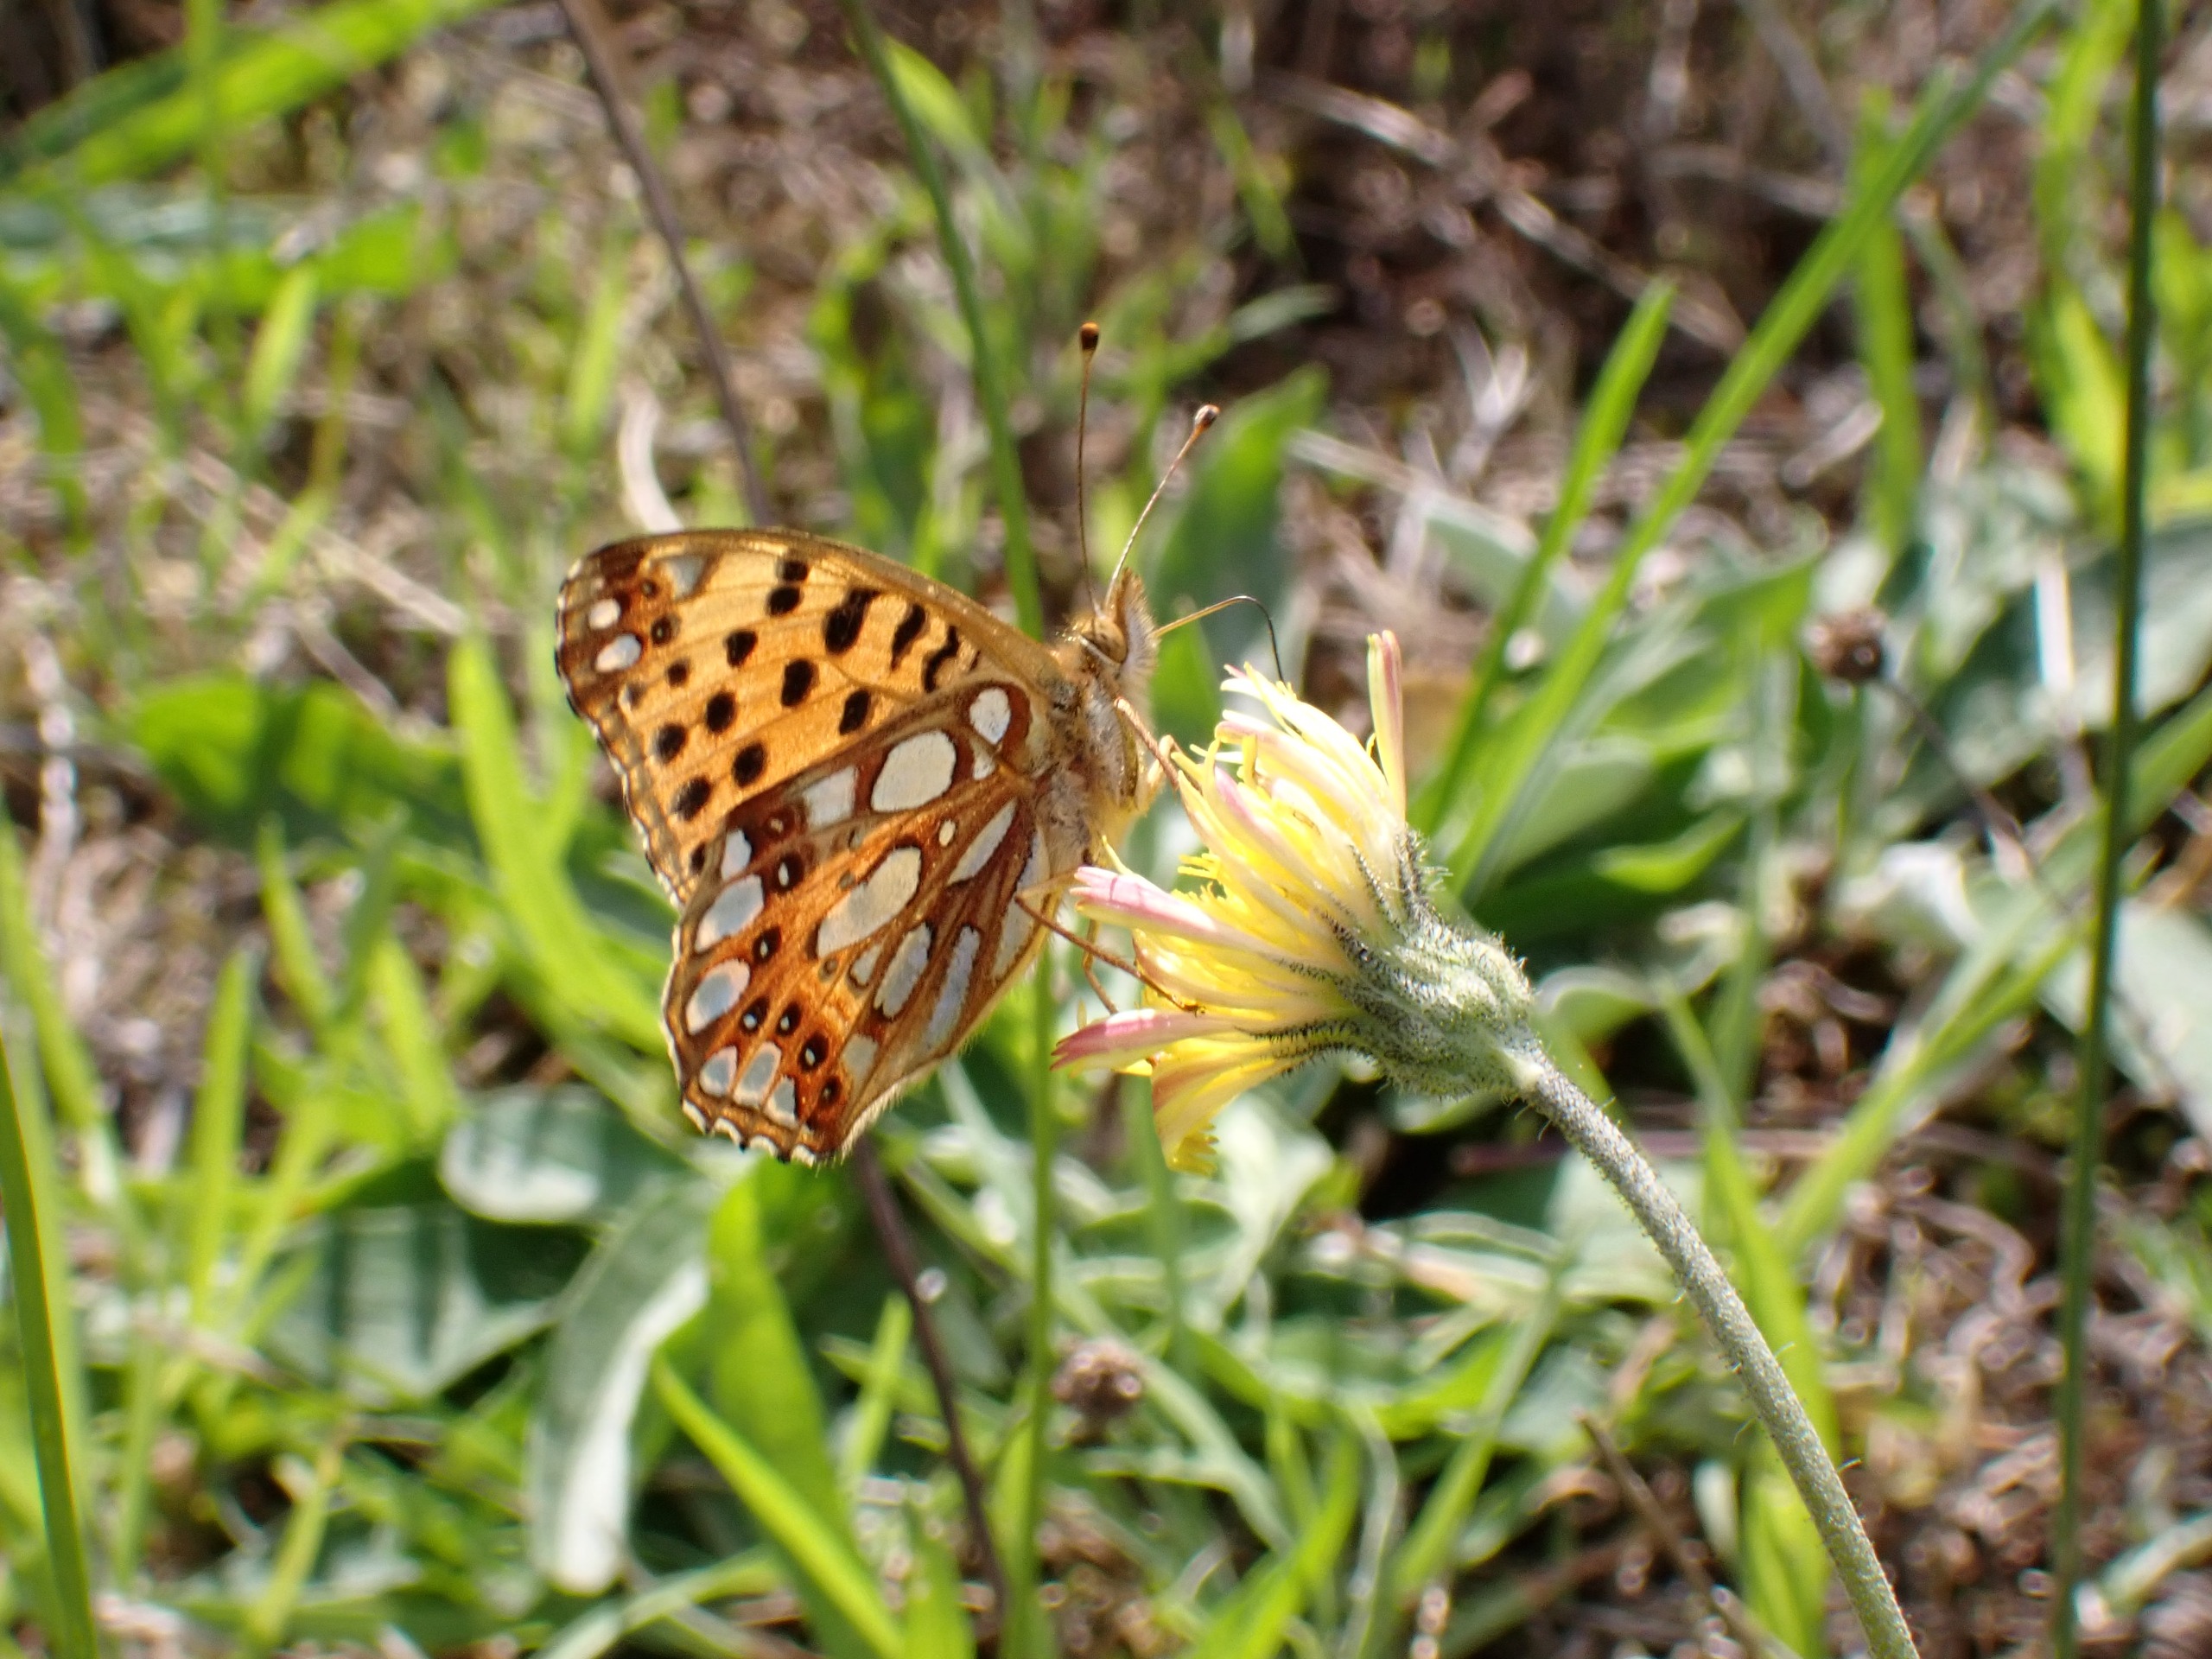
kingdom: Animalia
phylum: Arthropoda
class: Insecta
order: Lepidoptera
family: Nymphalidae
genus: Issoria
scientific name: Issoria lathonia
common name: Storplettet perlemorsommerfugl
